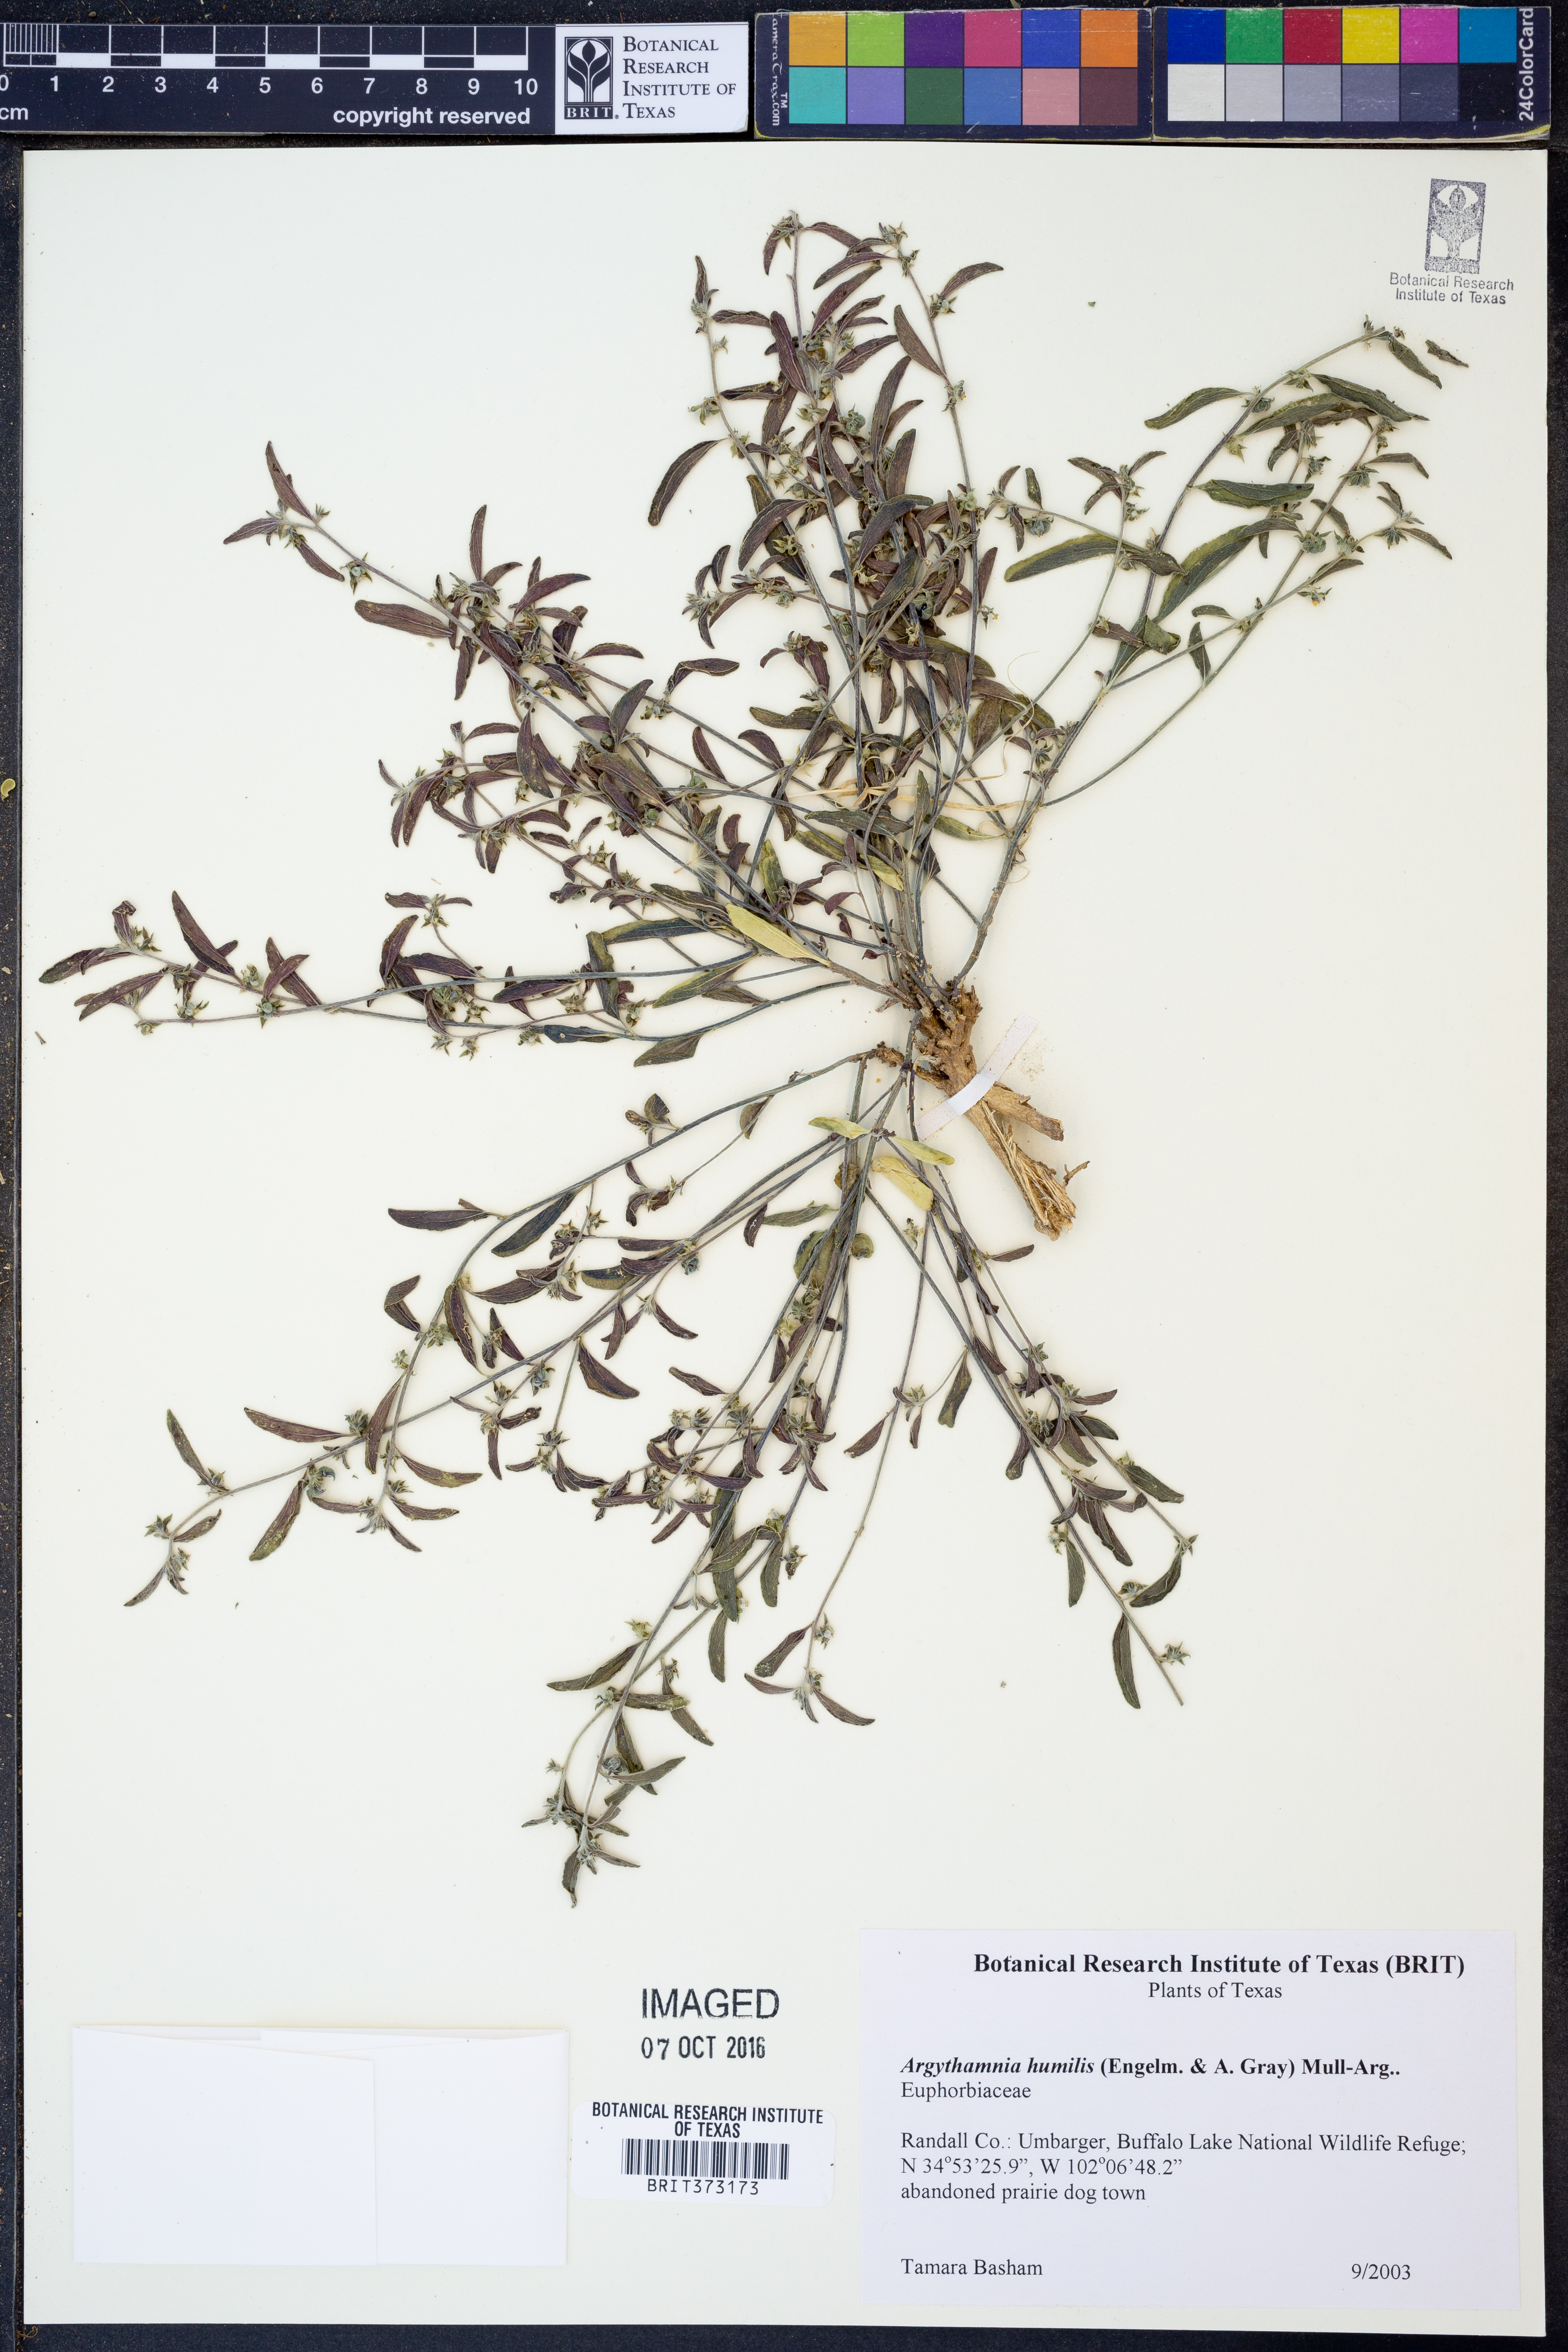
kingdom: Plantae
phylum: Tracheophyta
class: Magnoliopsida
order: Malpighiales
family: Euphorbiaceae
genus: Ditaxis
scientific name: Ditaxis humilis
